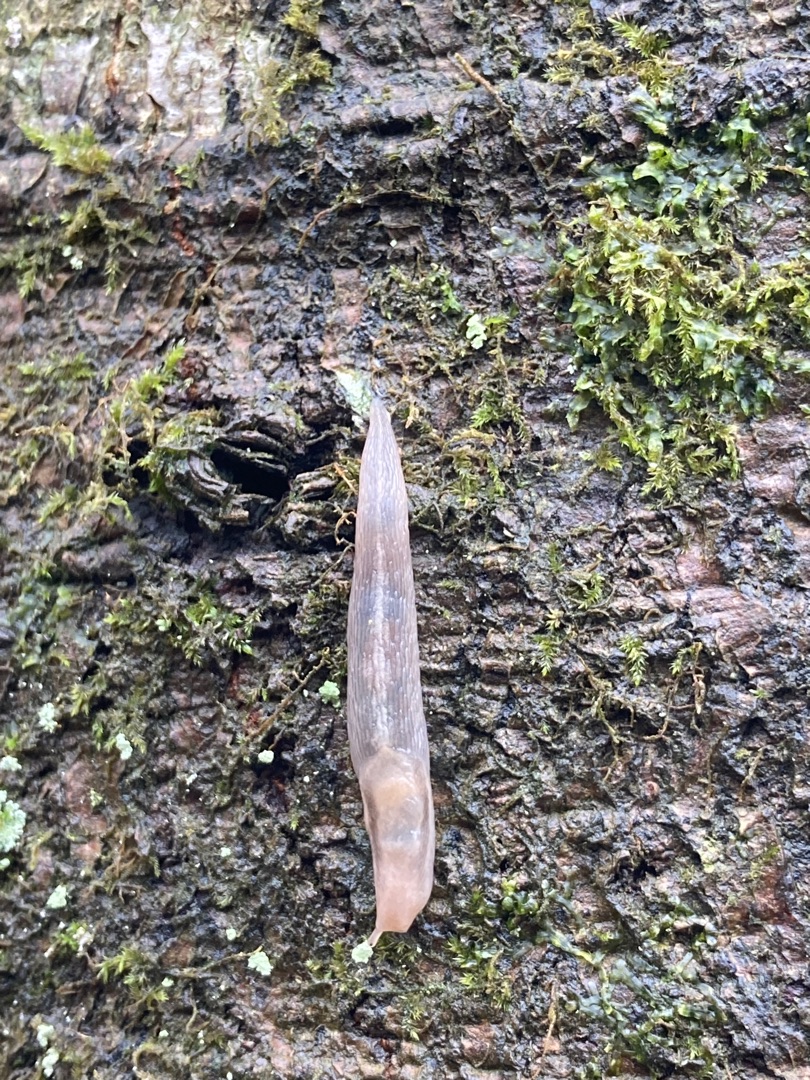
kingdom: Animalia
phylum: Mollusca
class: Gastropoda
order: Stylommatophora
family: Limacidae
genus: Lehmannia
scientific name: Lehmannia marginata
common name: Bøgesnegl
